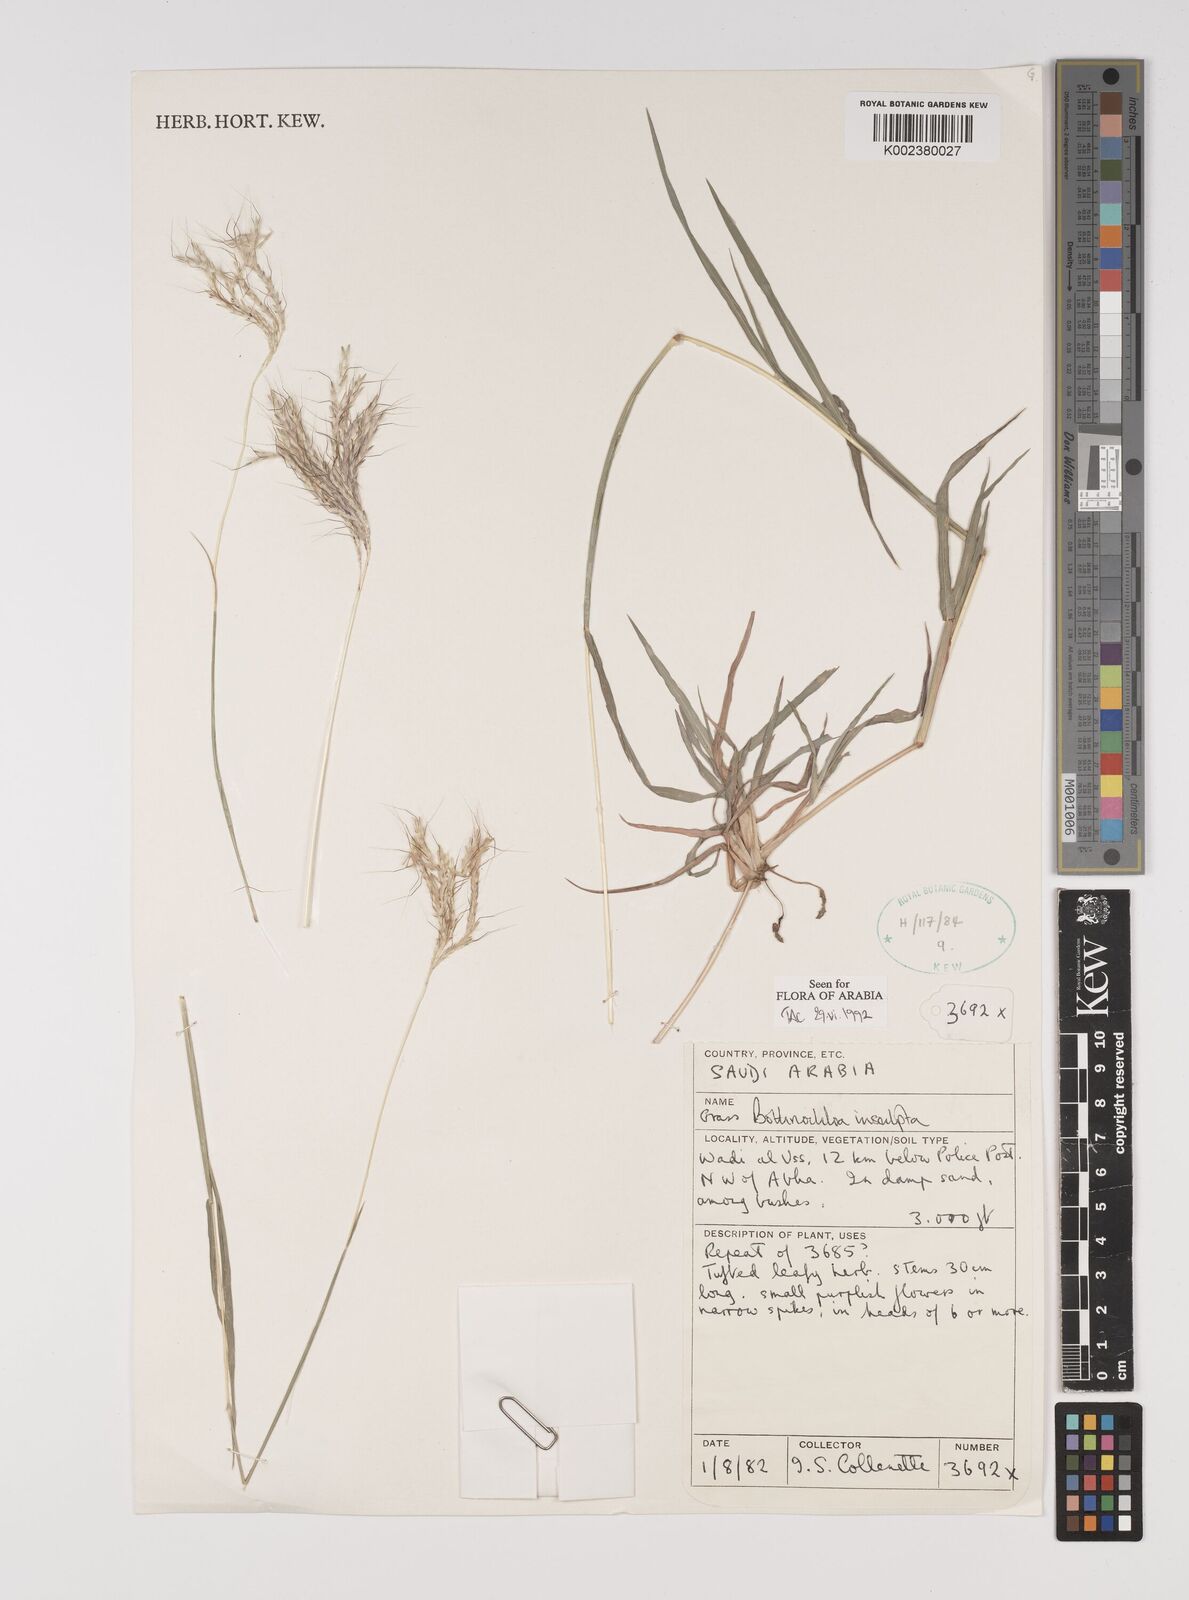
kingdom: Plantae
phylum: Tracheophyta
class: Liliopsida
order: Poales
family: Poaceae
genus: Bothriochloa
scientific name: Bothriochloa insculpta
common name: Creeping-bluegrass
